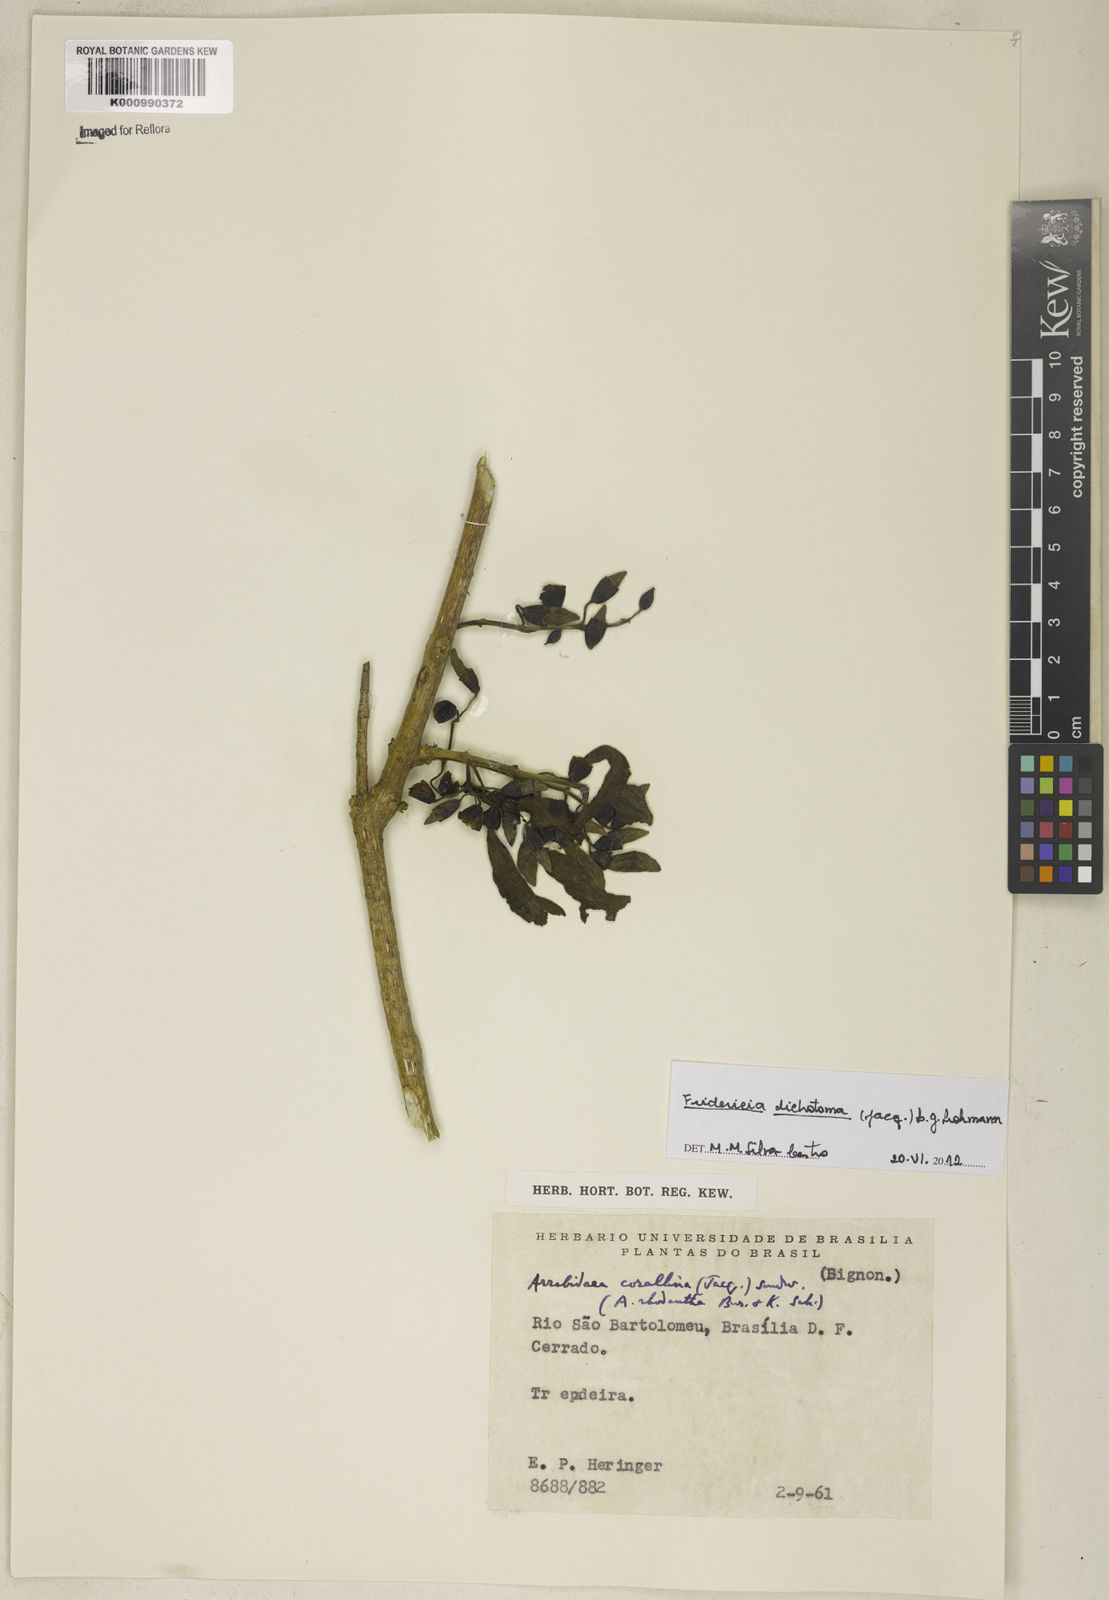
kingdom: Plantae
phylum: Tracheophyta
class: Magnoliopsida
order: Lamiales
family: Bignoniaceae
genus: Tanaecium
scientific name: Tanaecium dichotomum
